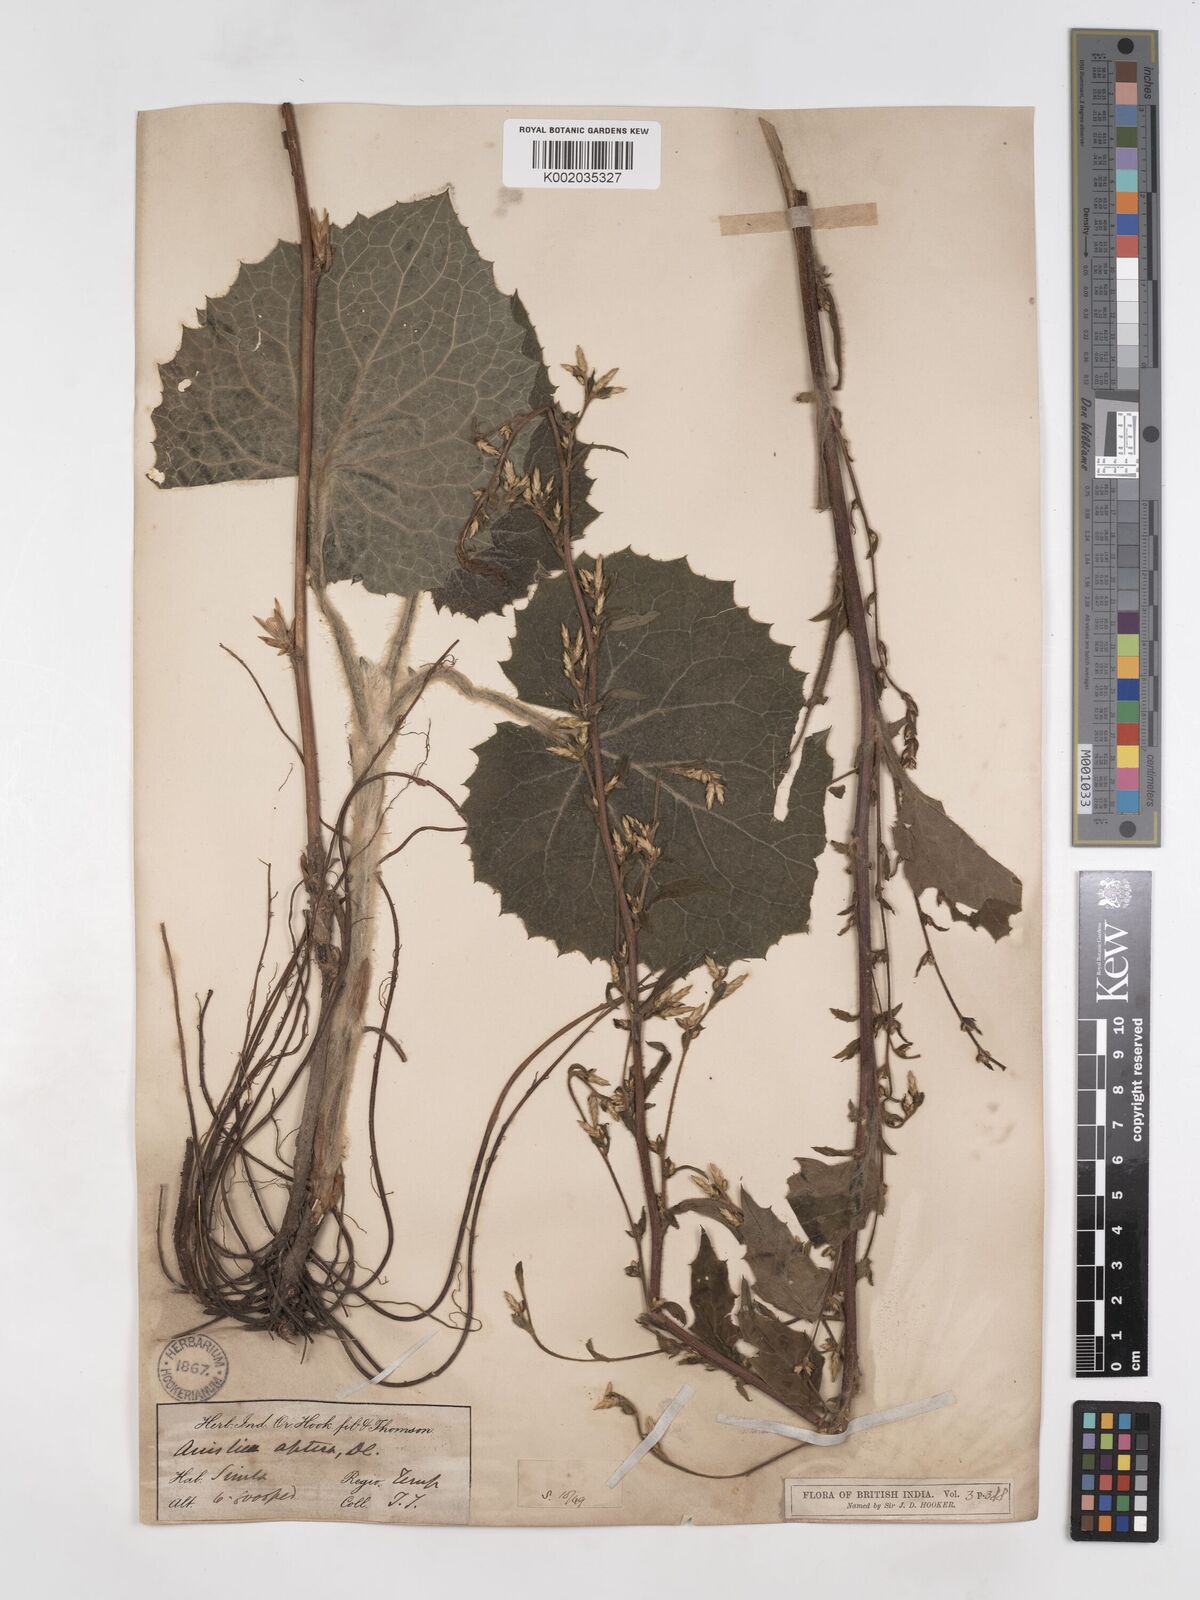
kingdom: Plantae
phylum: Tracheophyta
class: Magnoliopsida
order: Asterales
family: Asteraceae
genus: Ainsliaea
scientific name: Ainsliaea aptera
